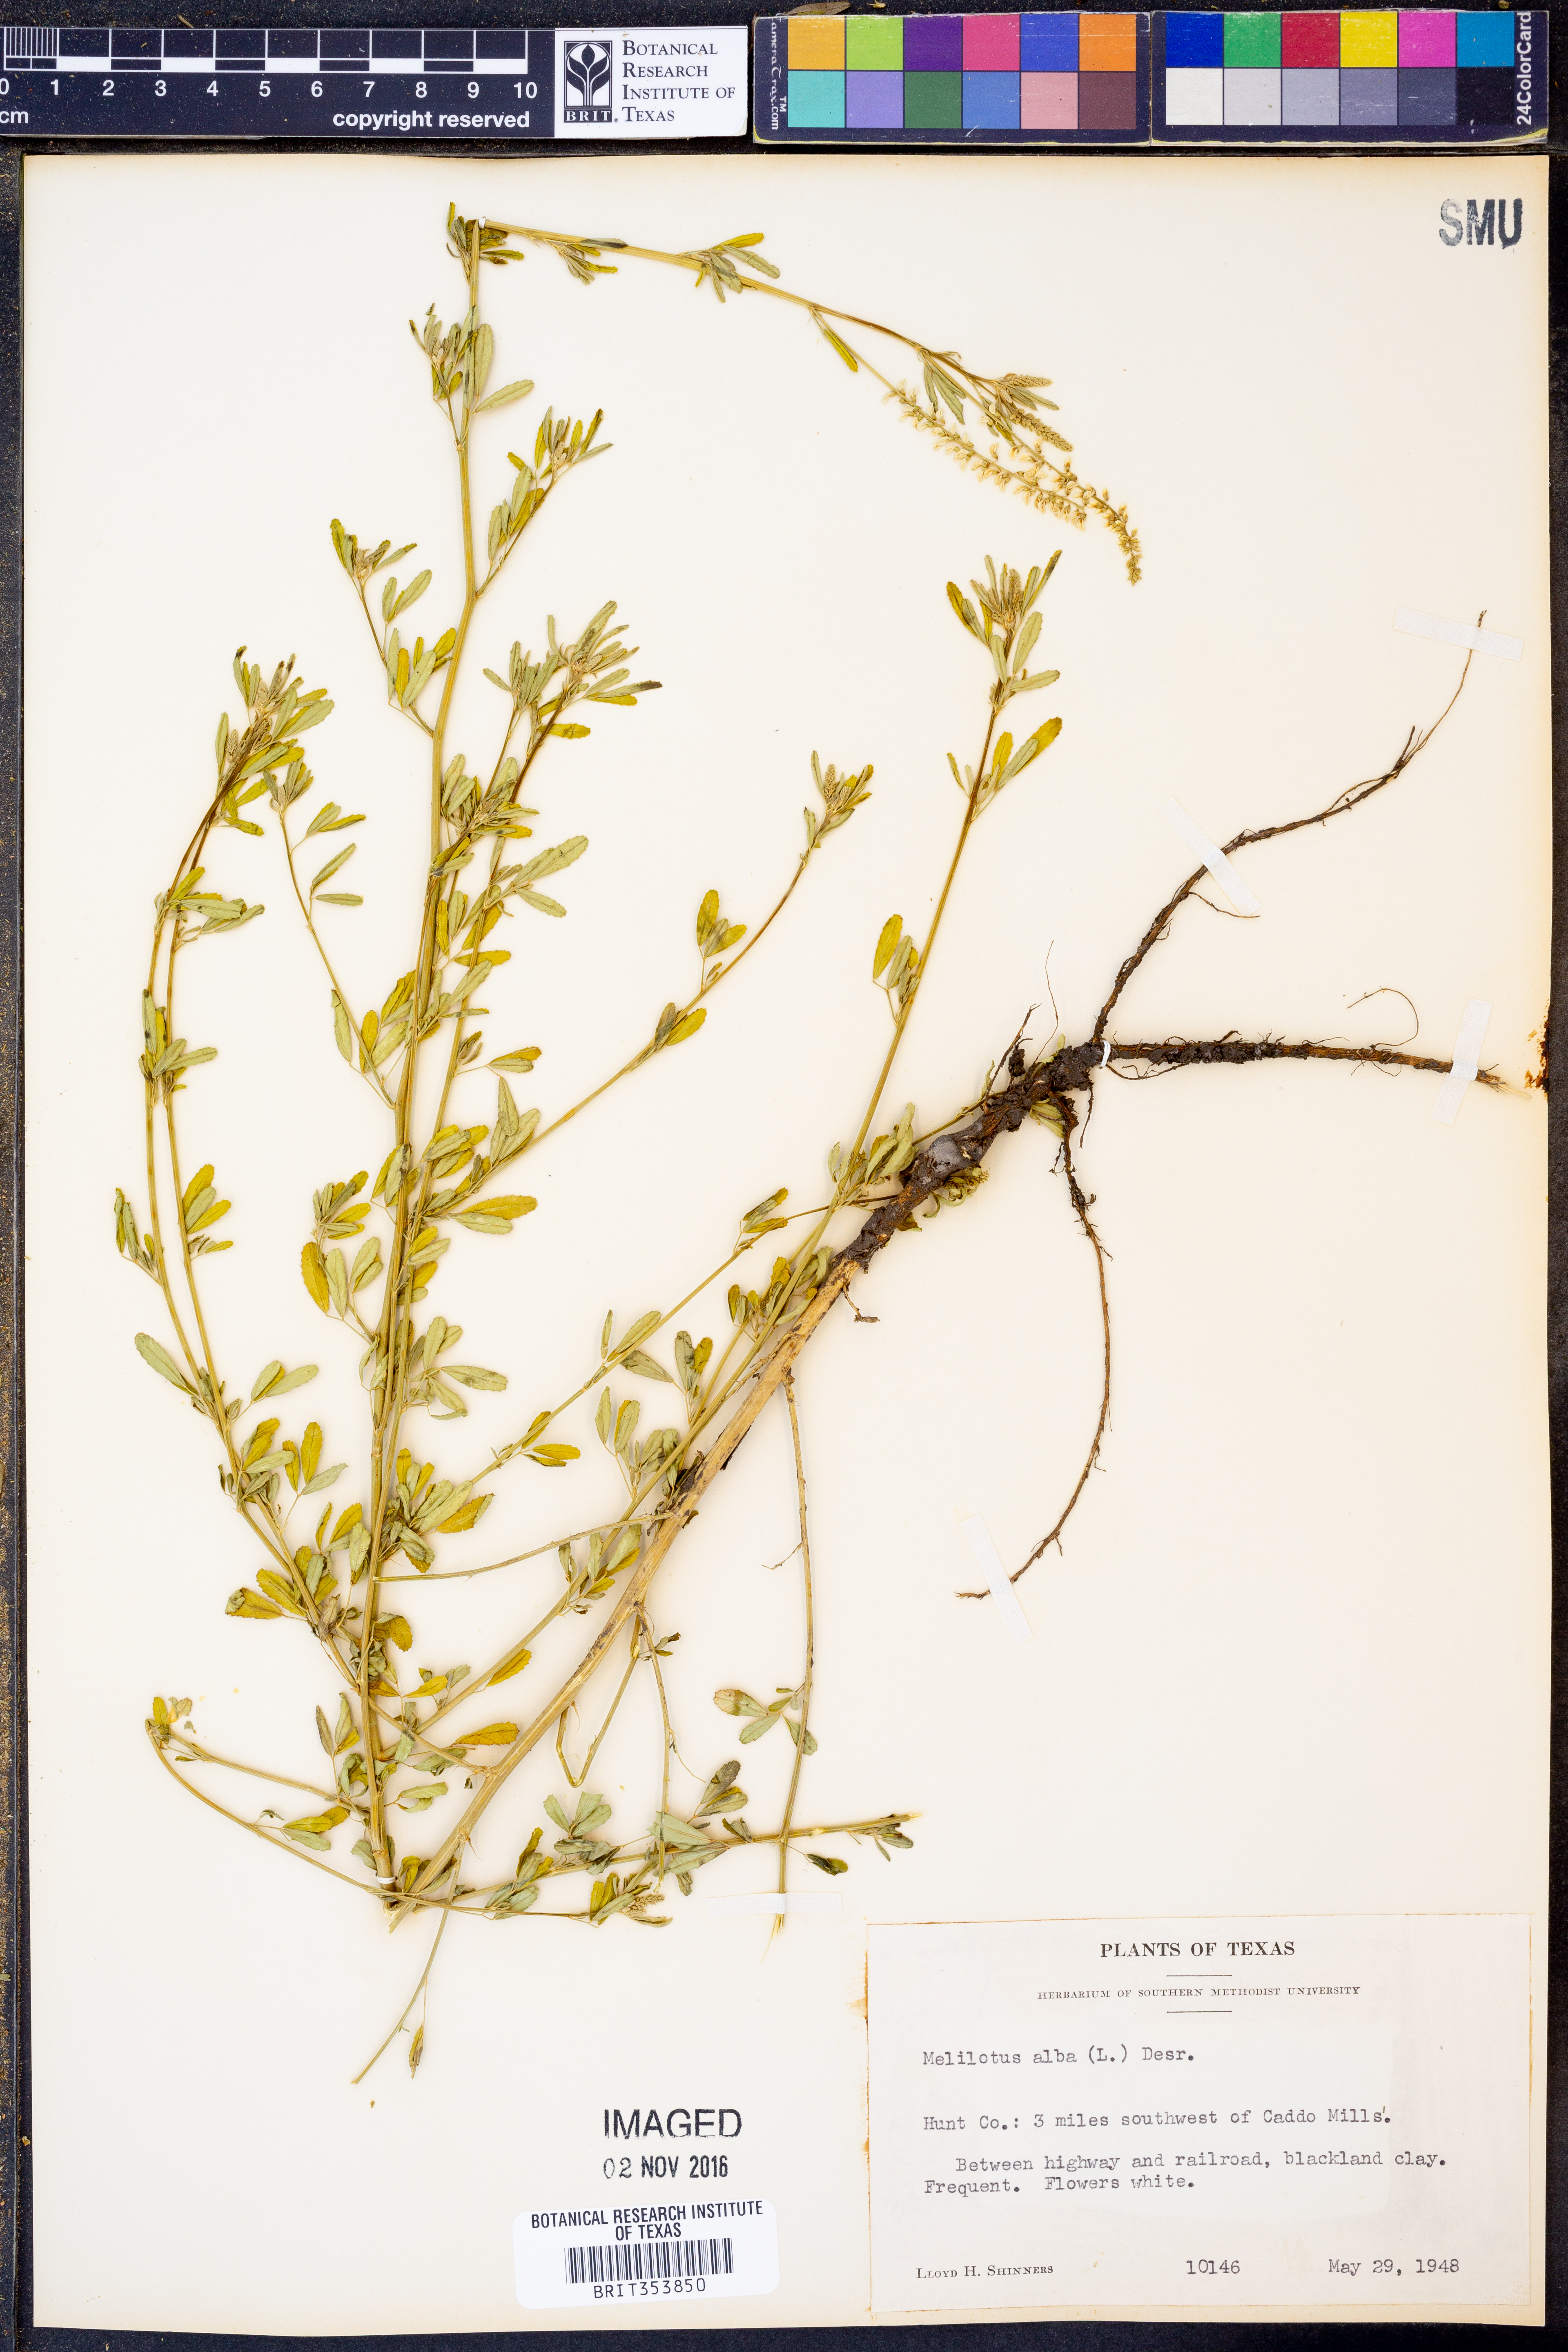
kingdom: Plantae
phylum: Tracheophyta
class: Magnoliopsida
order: Fabales
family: Fabaceae
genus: Melilotus
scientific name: Melilotus albus
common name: White melilot
